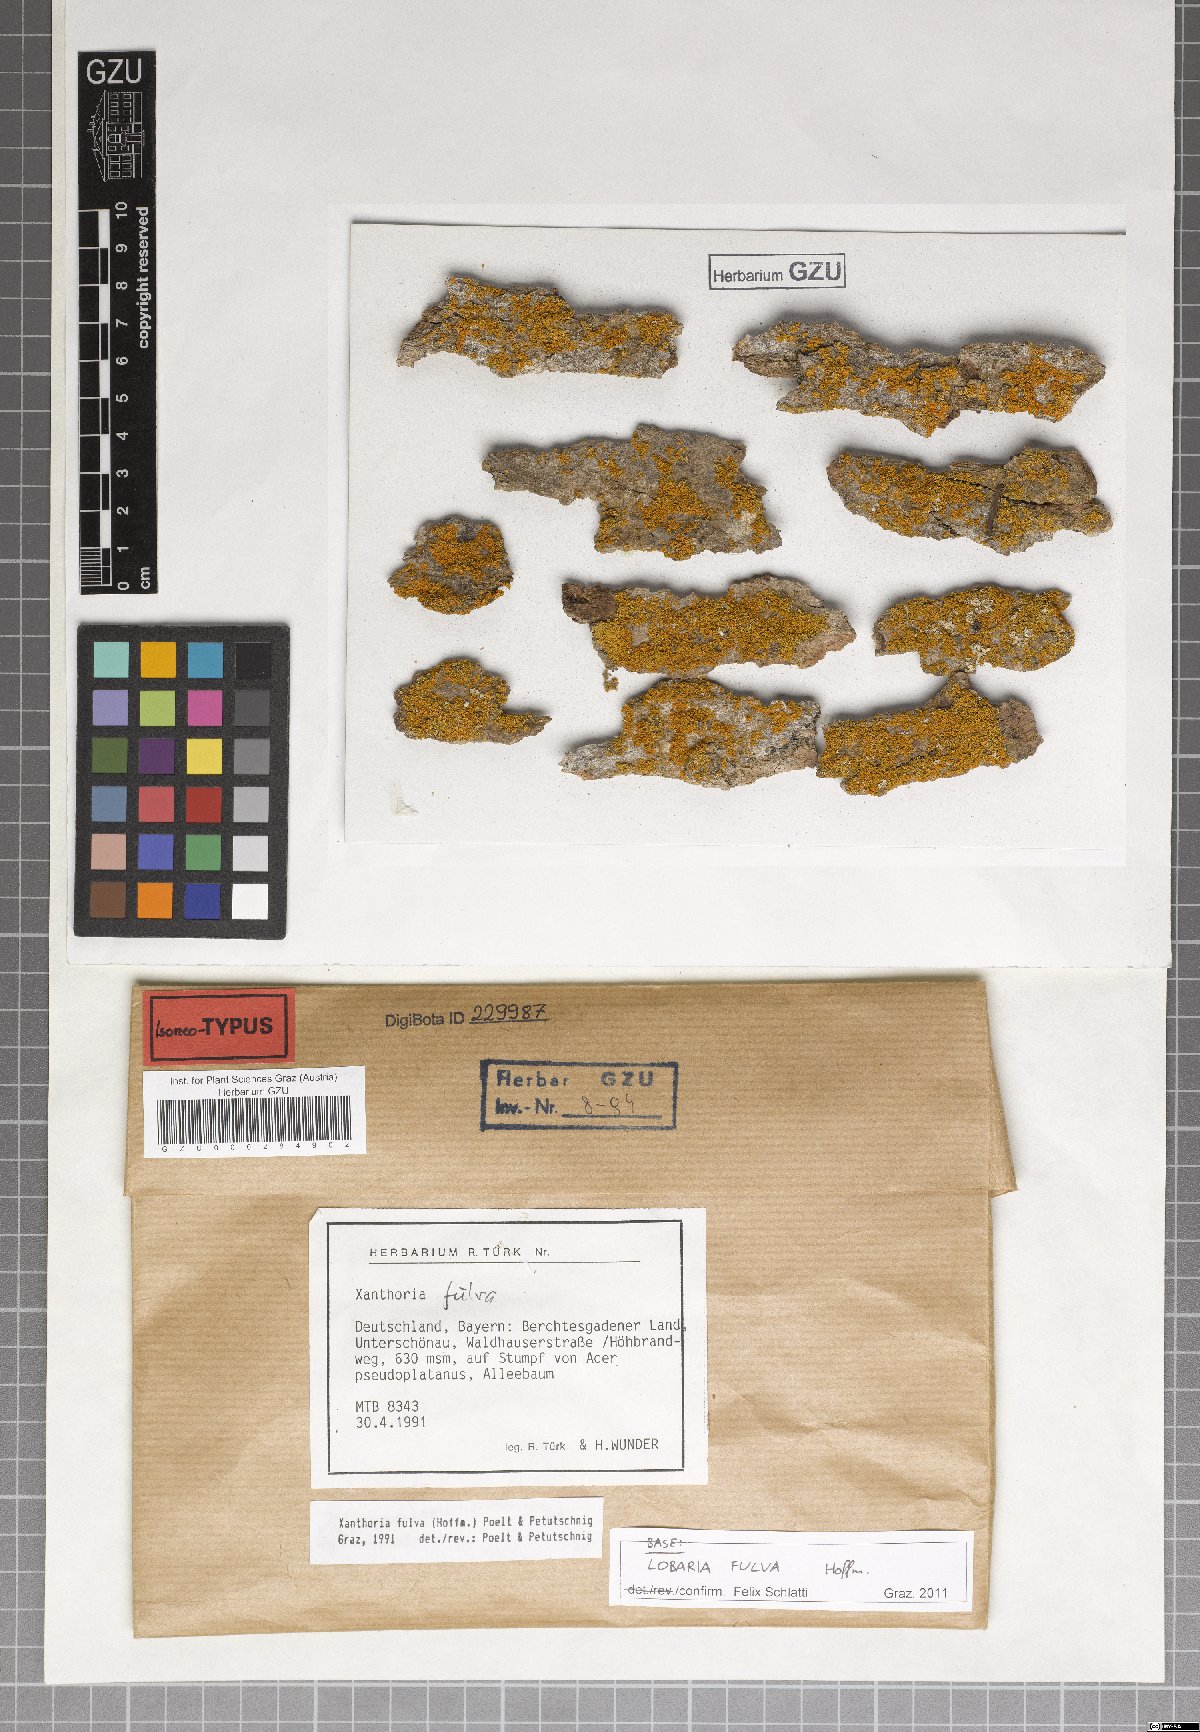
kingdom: Fungi
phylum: Ascomycota
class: Lecanoromycetes
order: Teloschistales
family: Teloschistaceae
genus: Gallowayella
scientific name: Gallowayella fulva
